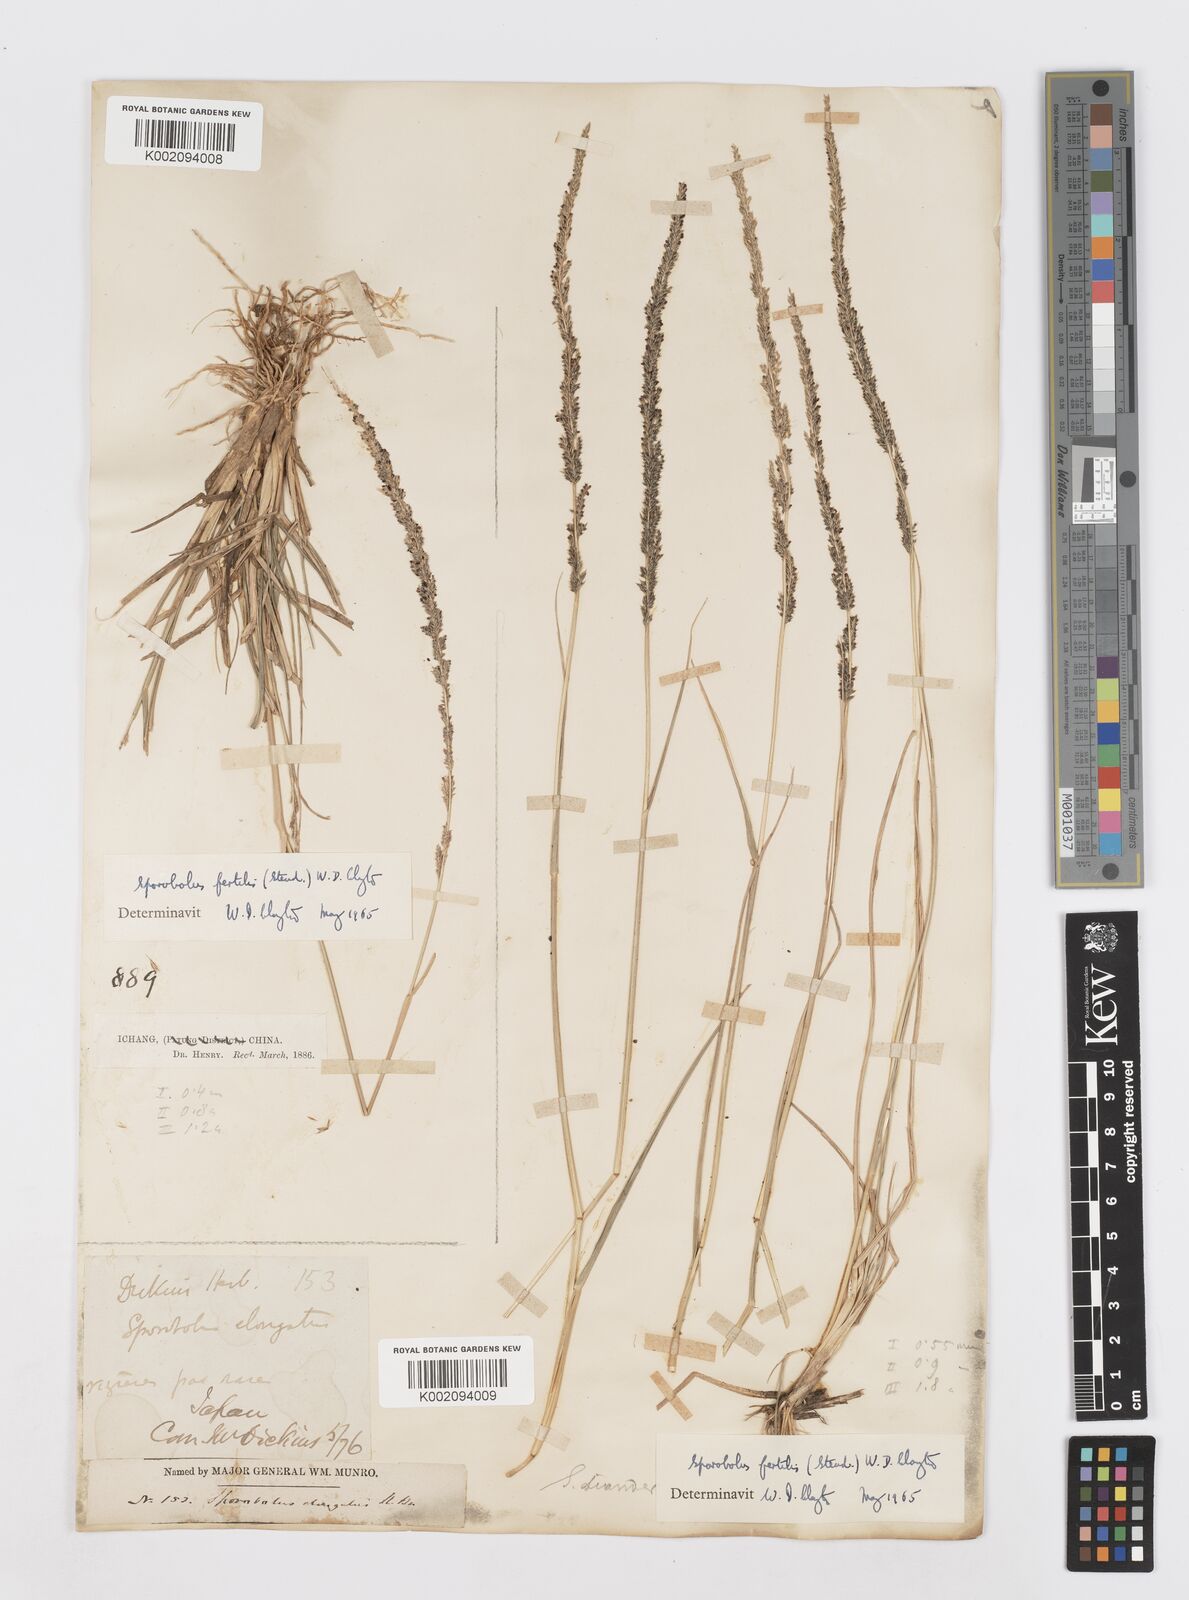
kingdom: Plantae
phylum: Tracheophyta
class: Liliopsida
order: Poales
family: Poaceae
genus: Sporobolus
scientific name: Sporobolus fertilis
